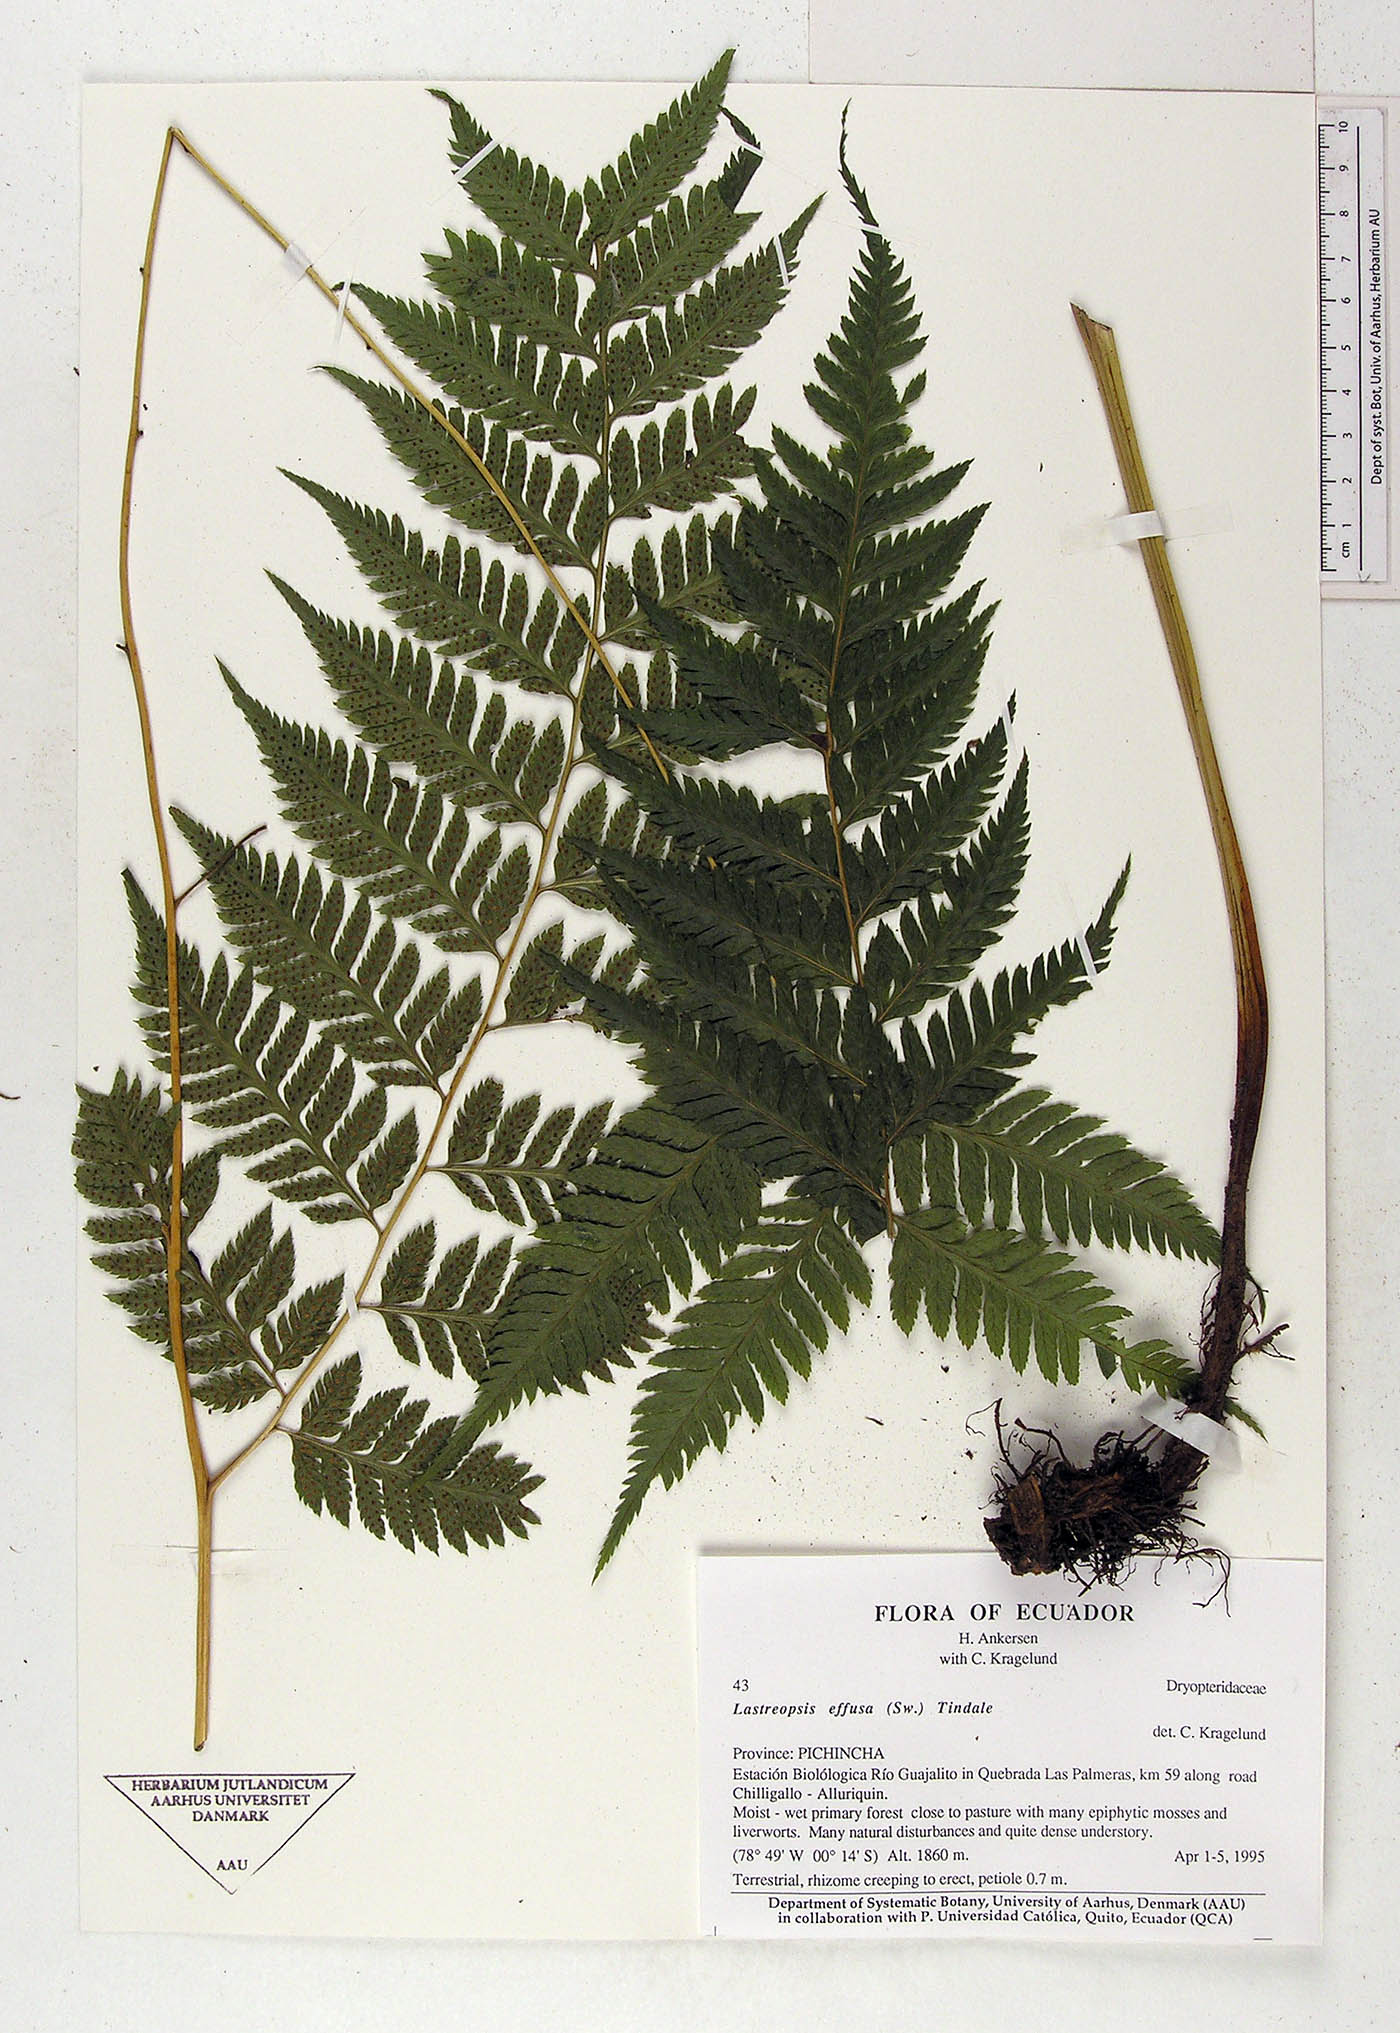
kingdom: Plantae
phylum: Tracheophyta
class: Polypodiopsida
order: Polypodiales
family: Dryopteridaceae
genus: Parapolystichum
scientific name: Parapolystichum effusum
